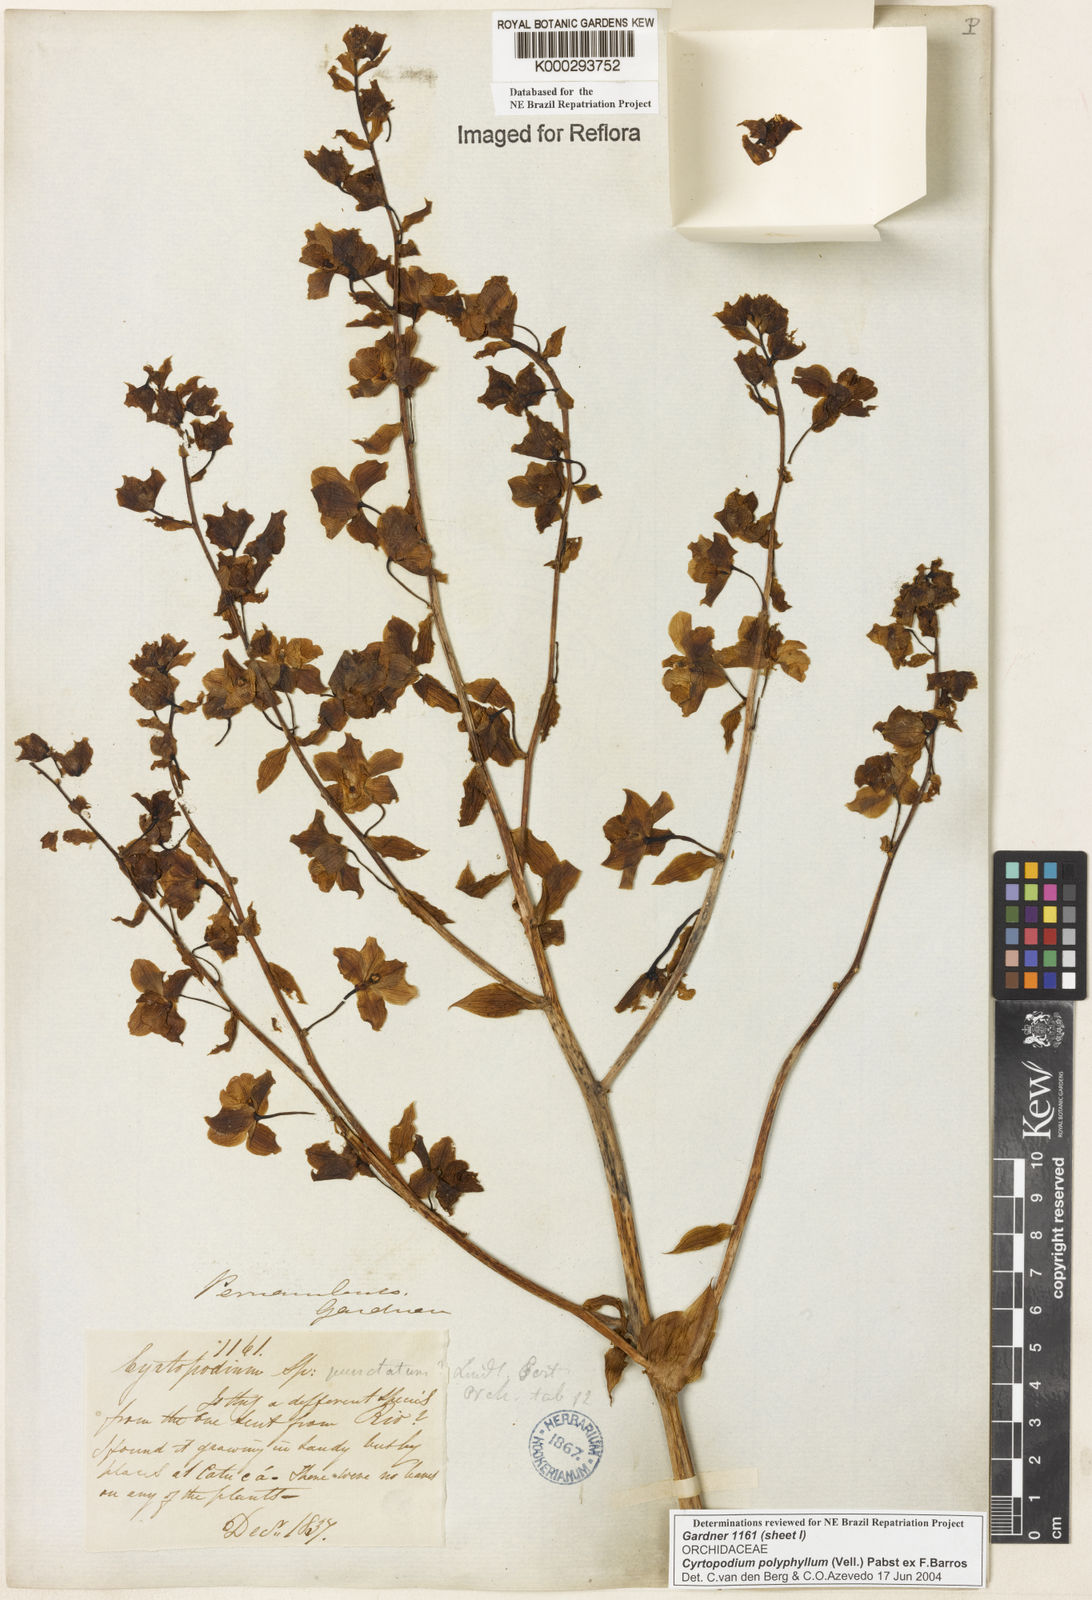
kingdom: Plantae
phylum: Tracheophyta
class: Liliopsida
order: Asparagales
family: Orchidaceae
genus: Cyrtopodium
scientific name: Cyrtopodium flavum
